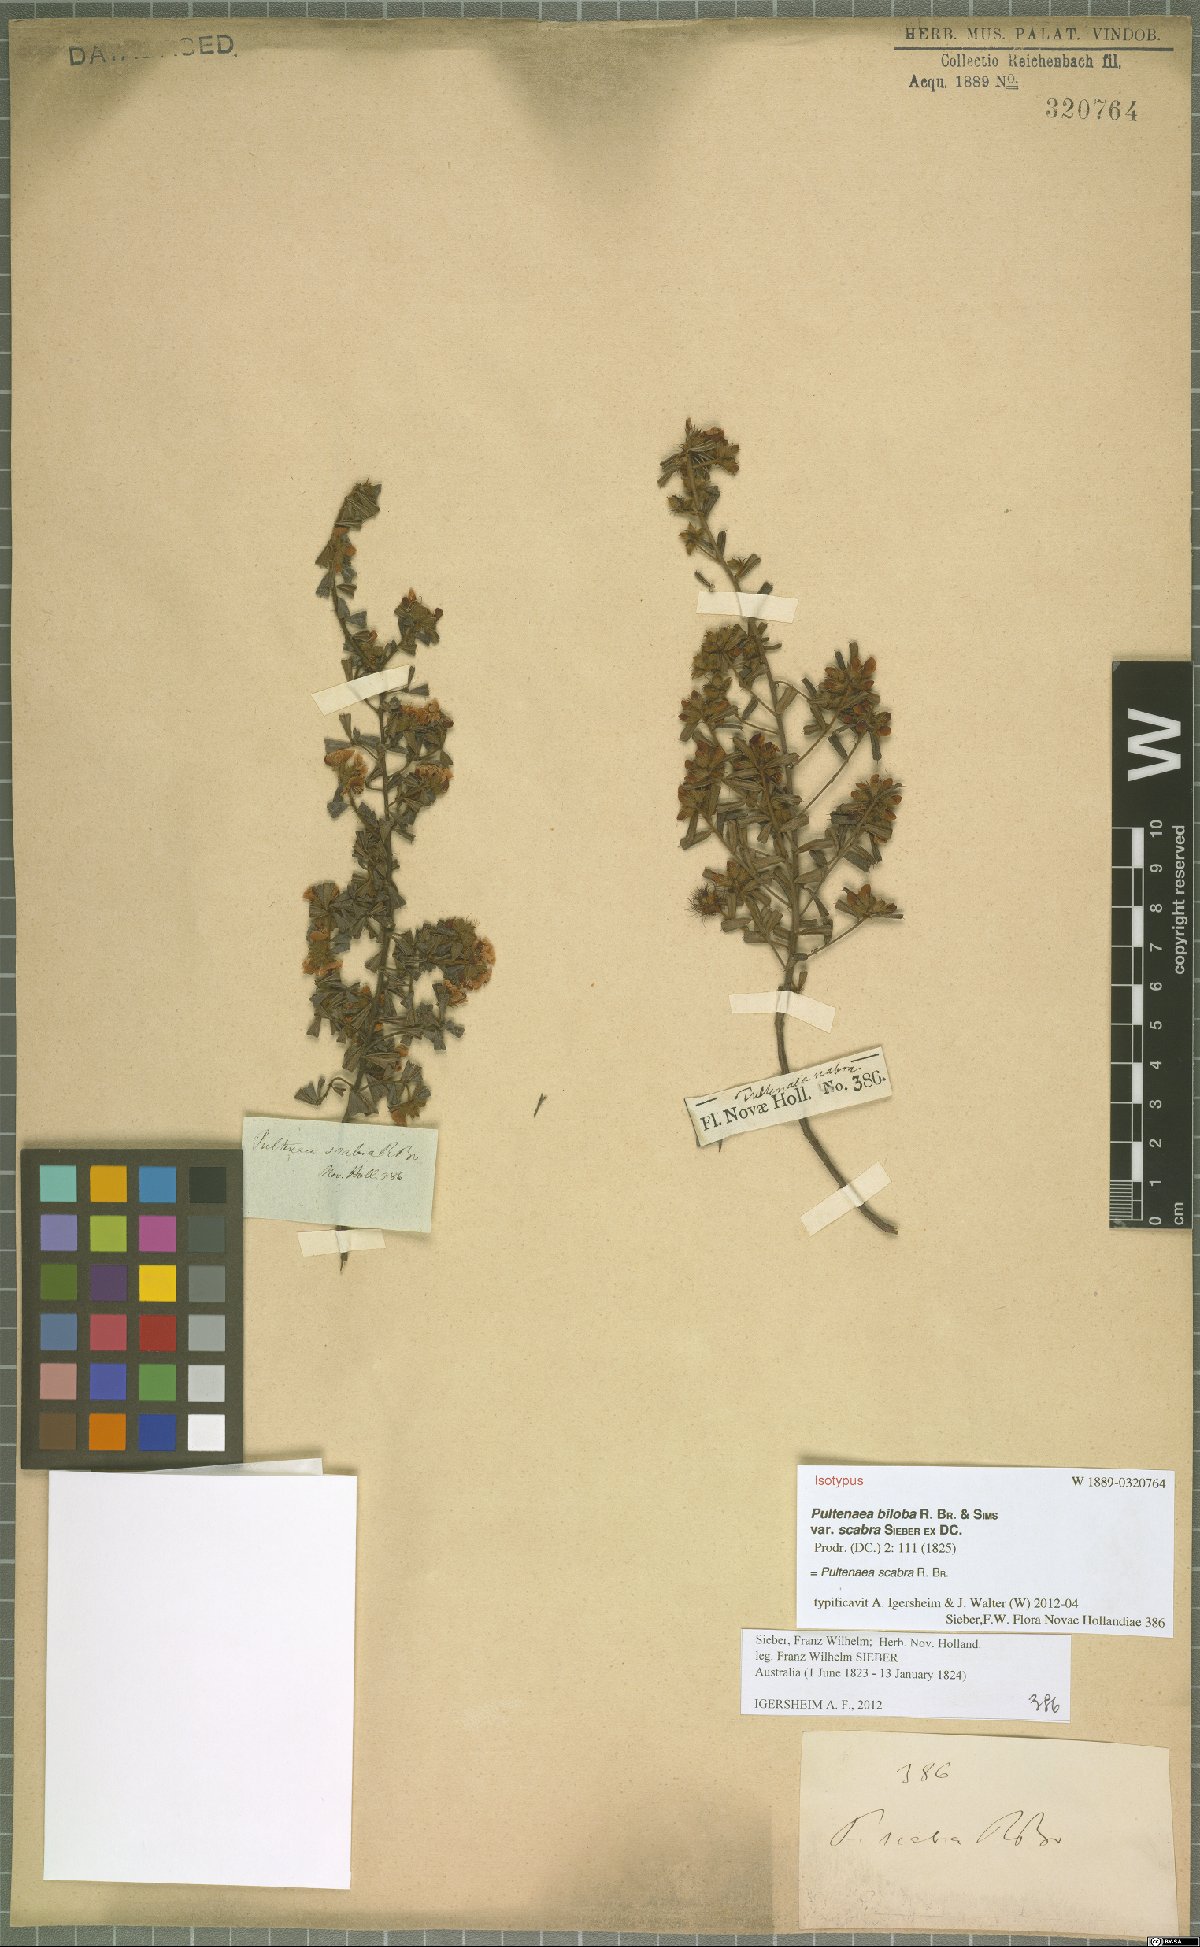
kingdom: Plantae
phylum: Tracheophyta
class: Magnoliopsida
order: Fabales
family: Fabaceae
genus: Pultenaea
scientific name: Pultenaea scabra
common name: Rough bush-pea
